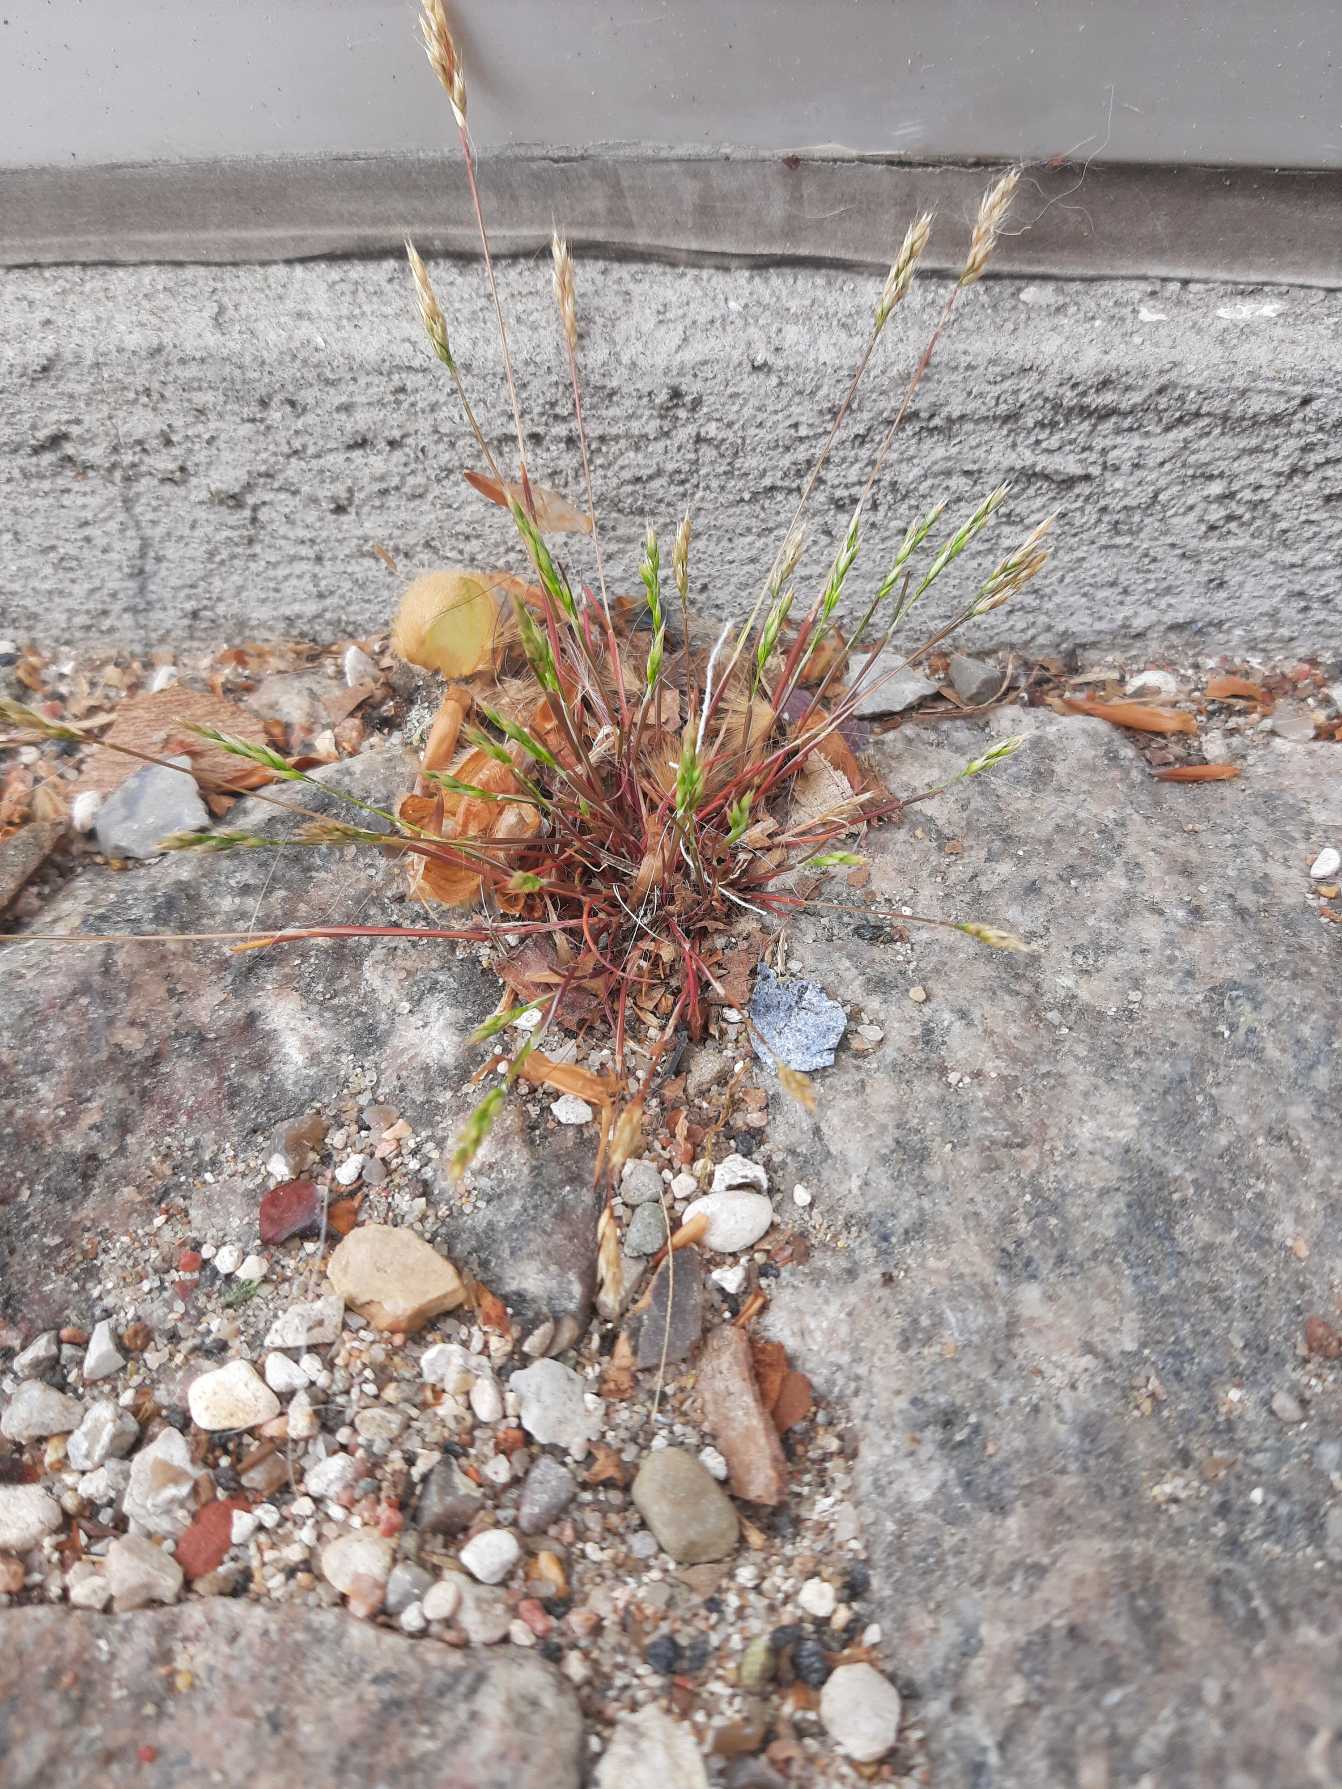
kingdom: Plantae
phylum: Tracheophyta
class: Liliopsida
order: Poales
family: Poaceae
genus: Aira
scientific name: Aira praecox
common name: Tidlig dværgbunke
